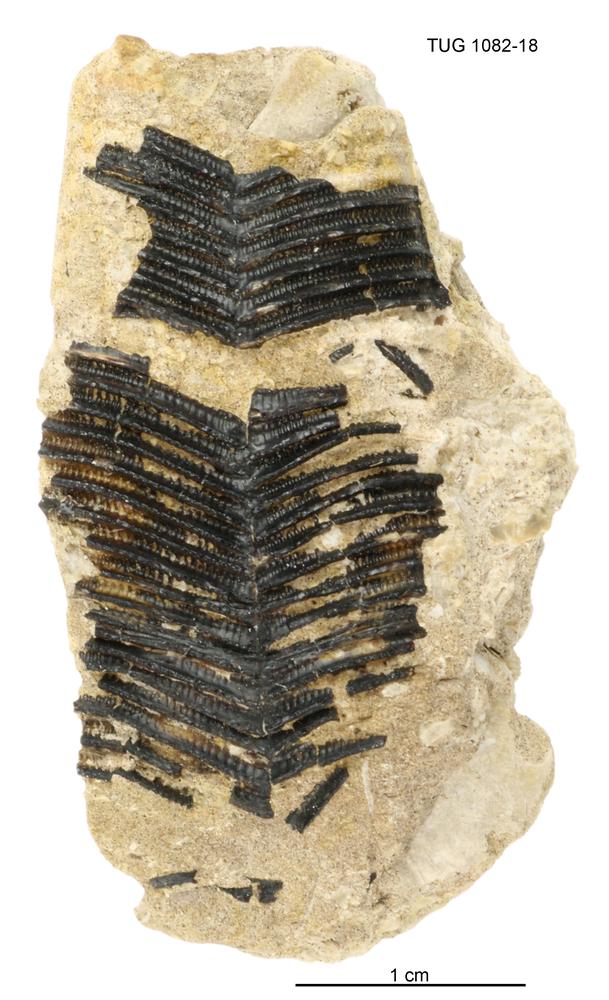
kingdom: Animalia
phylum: Cnidaria
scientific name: Cnidaria
